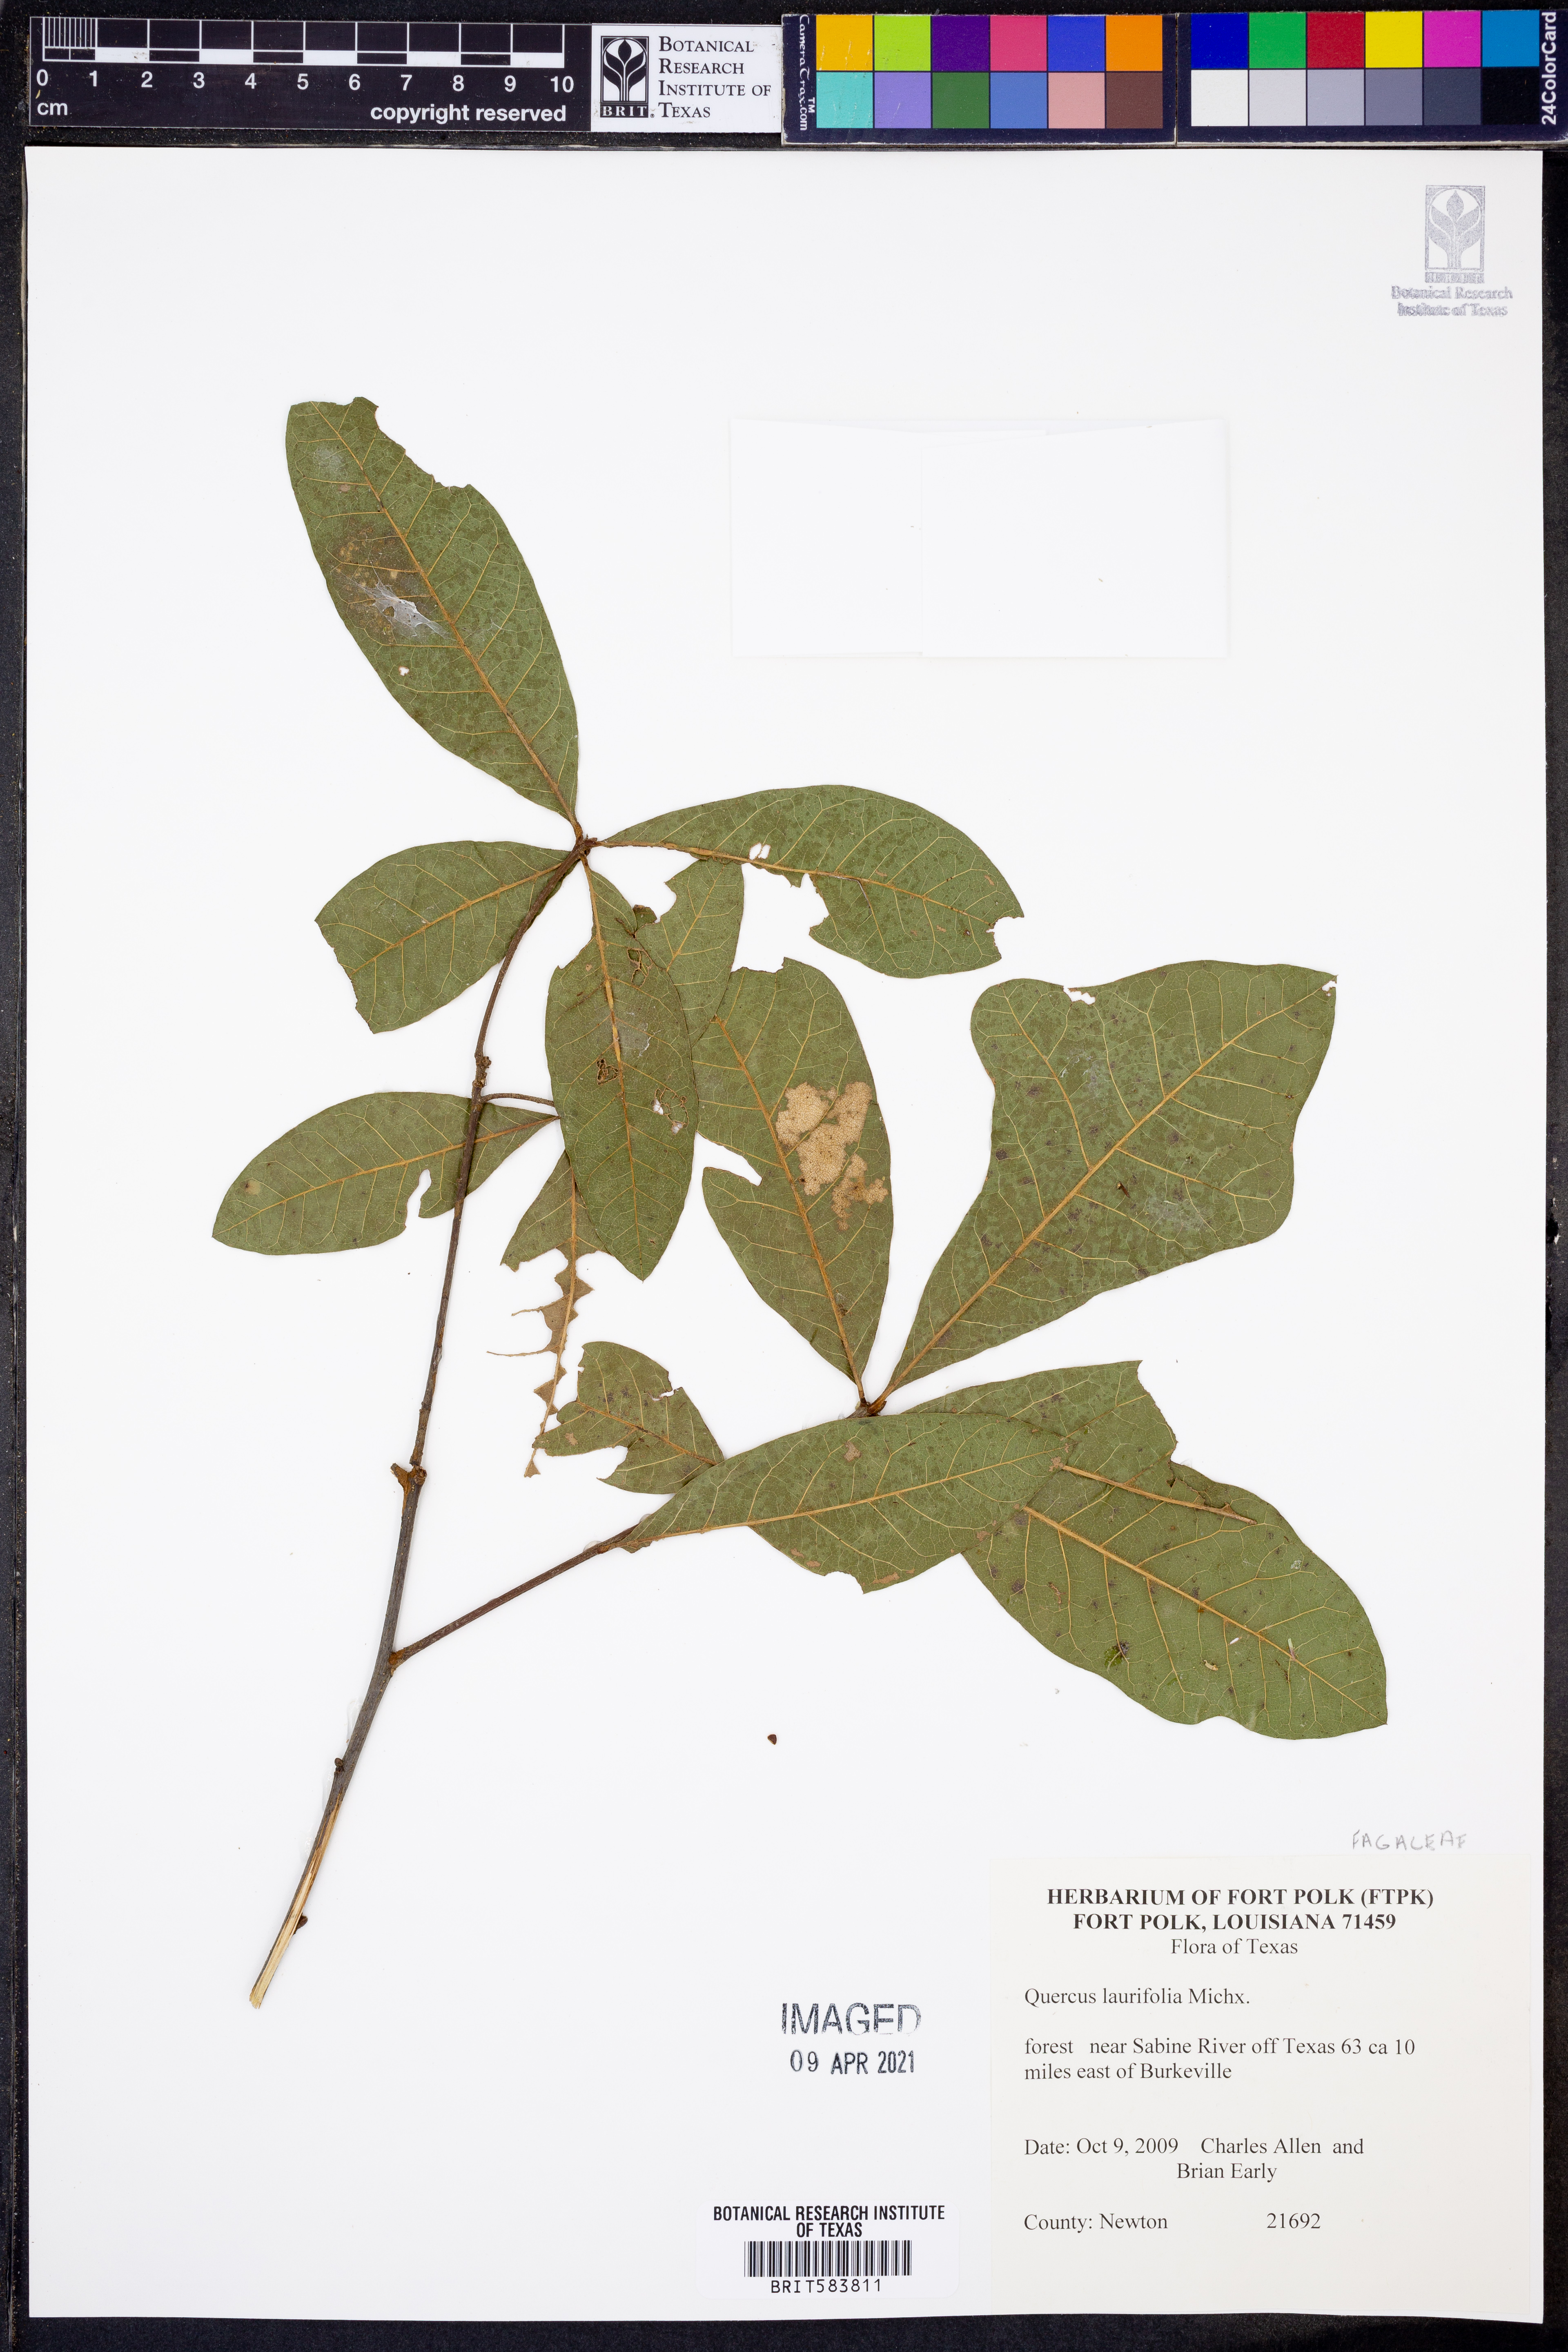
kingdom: Plantae
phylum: Tracheophyta
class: Magnoliopsida
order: Fagales
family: Fagaceae
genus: Quercus
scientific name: Quercus laurifolia
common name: Swamp laurel oak
